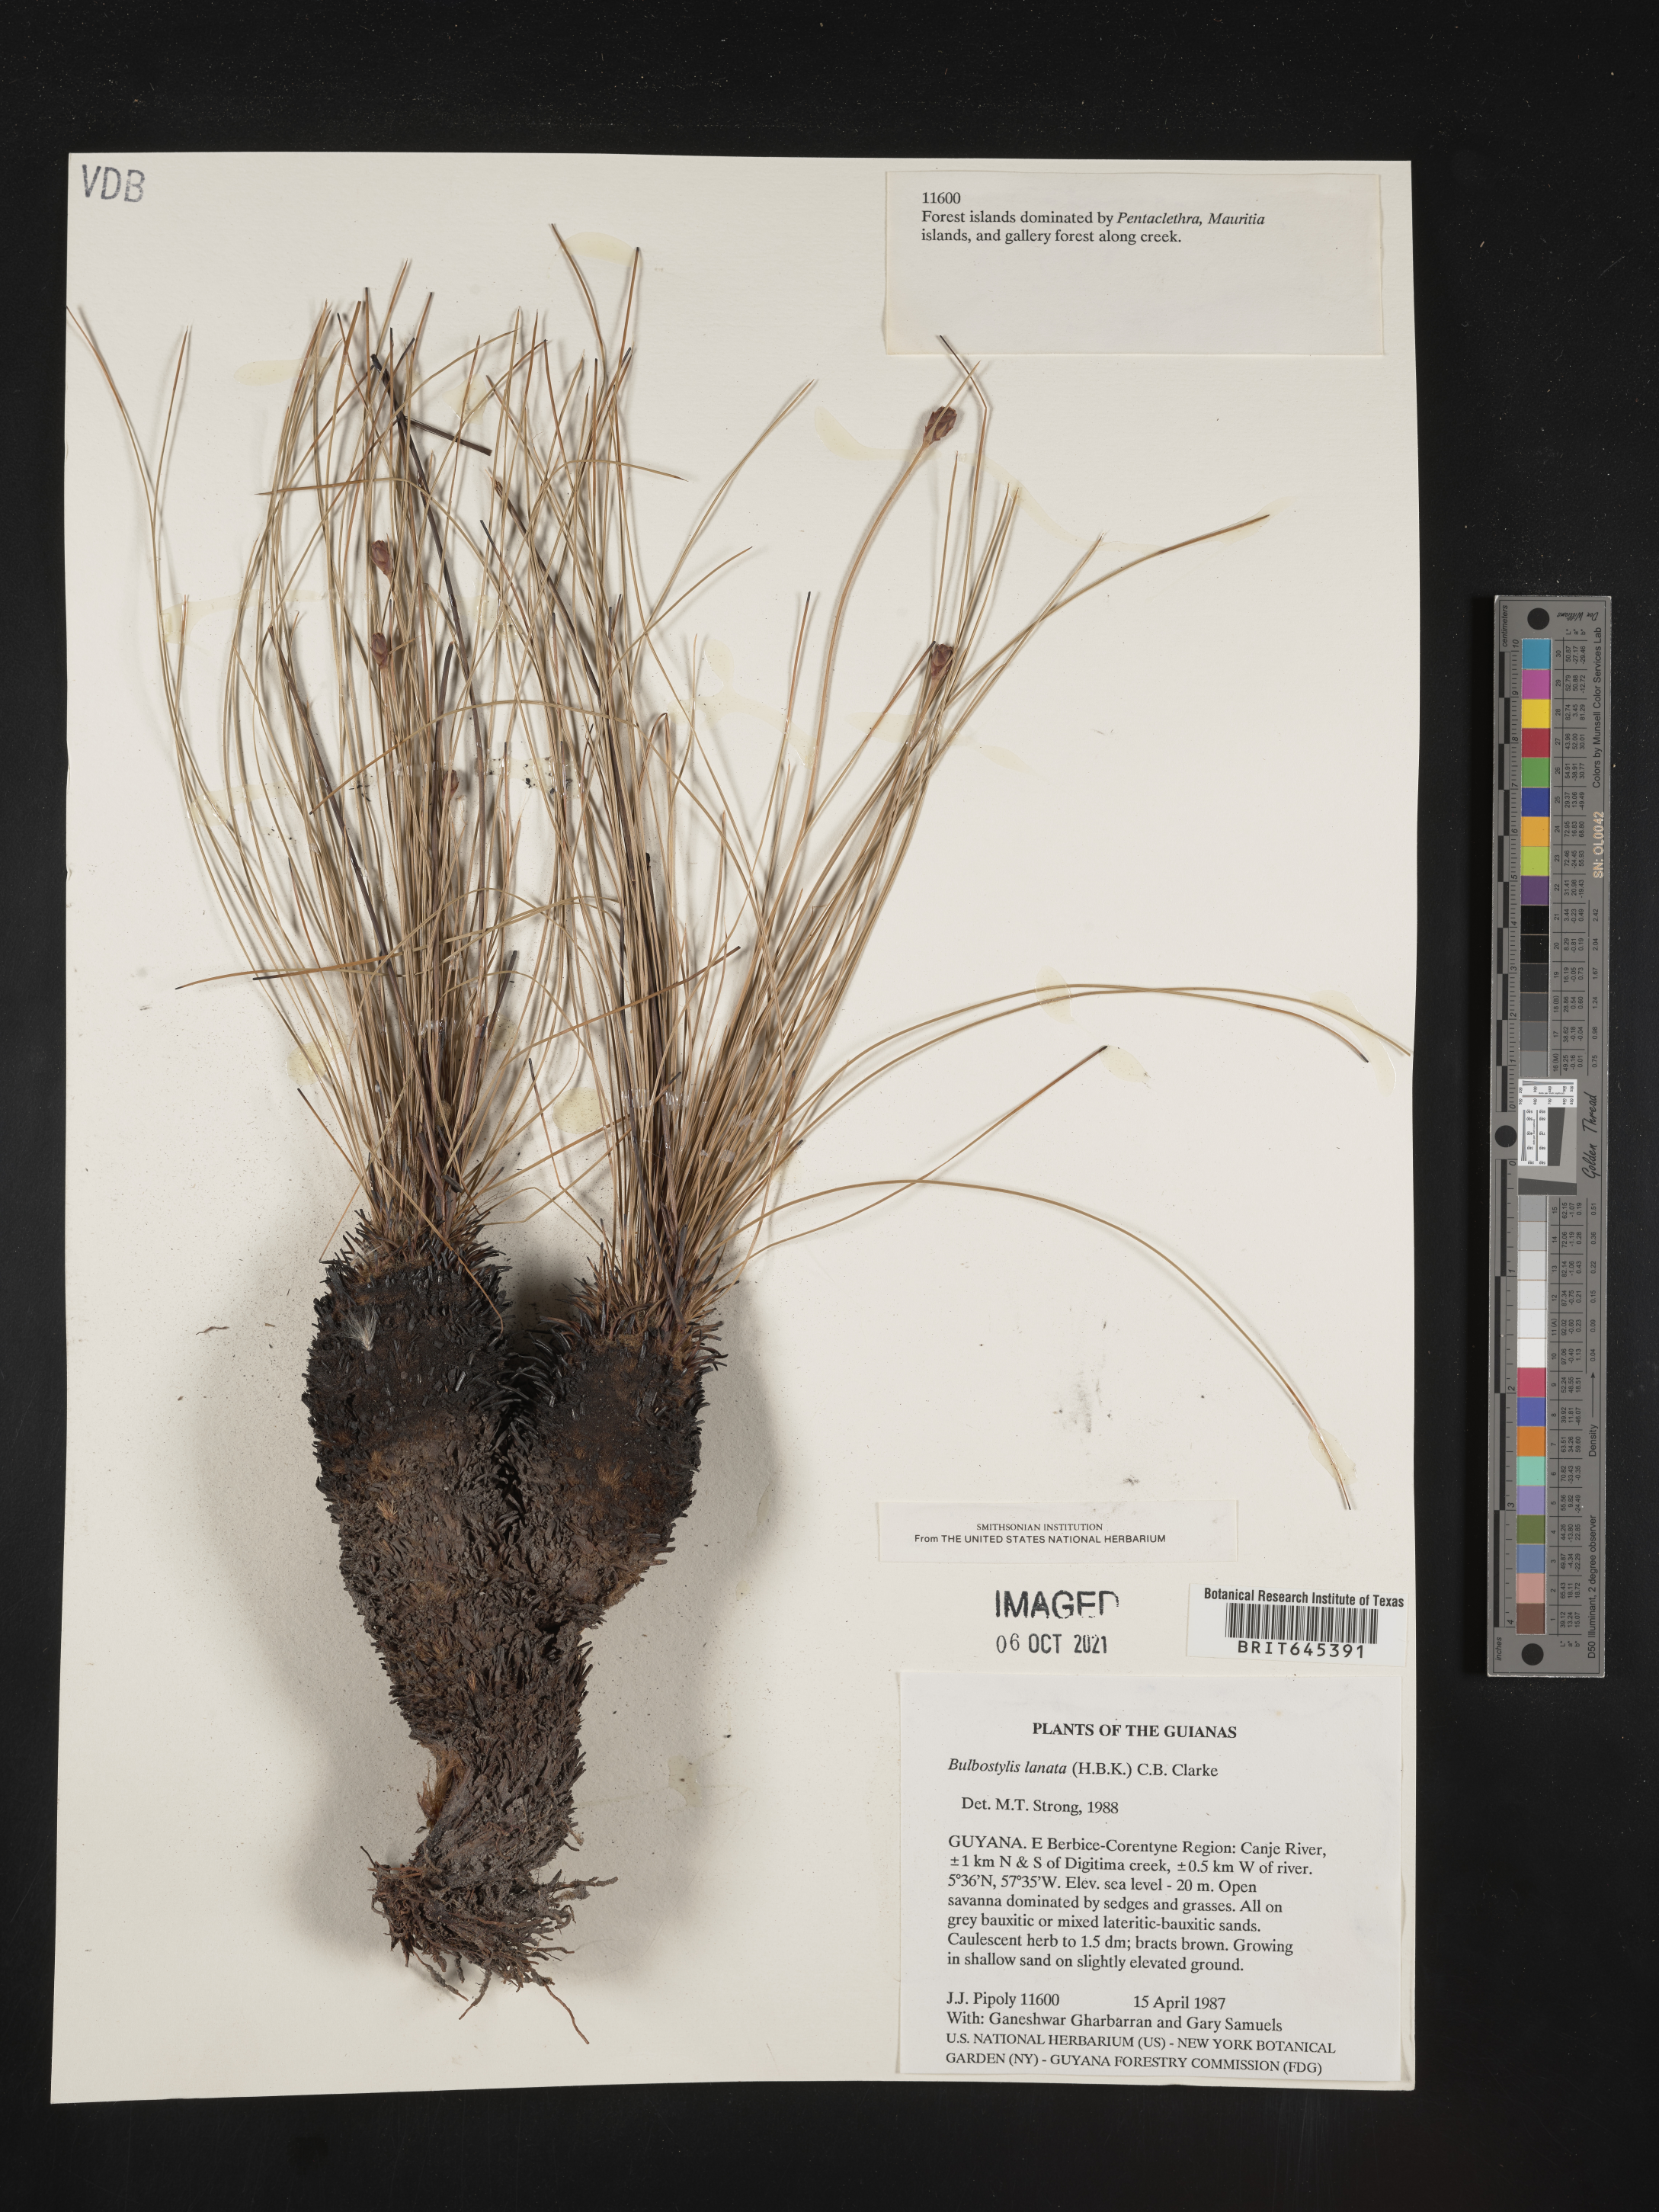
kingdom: Plantae
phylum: Tracheophyta
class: Liliopsida
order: Poales
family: Cyperaceae
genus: Bulbostylis
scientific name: Bulbostylis lanata
